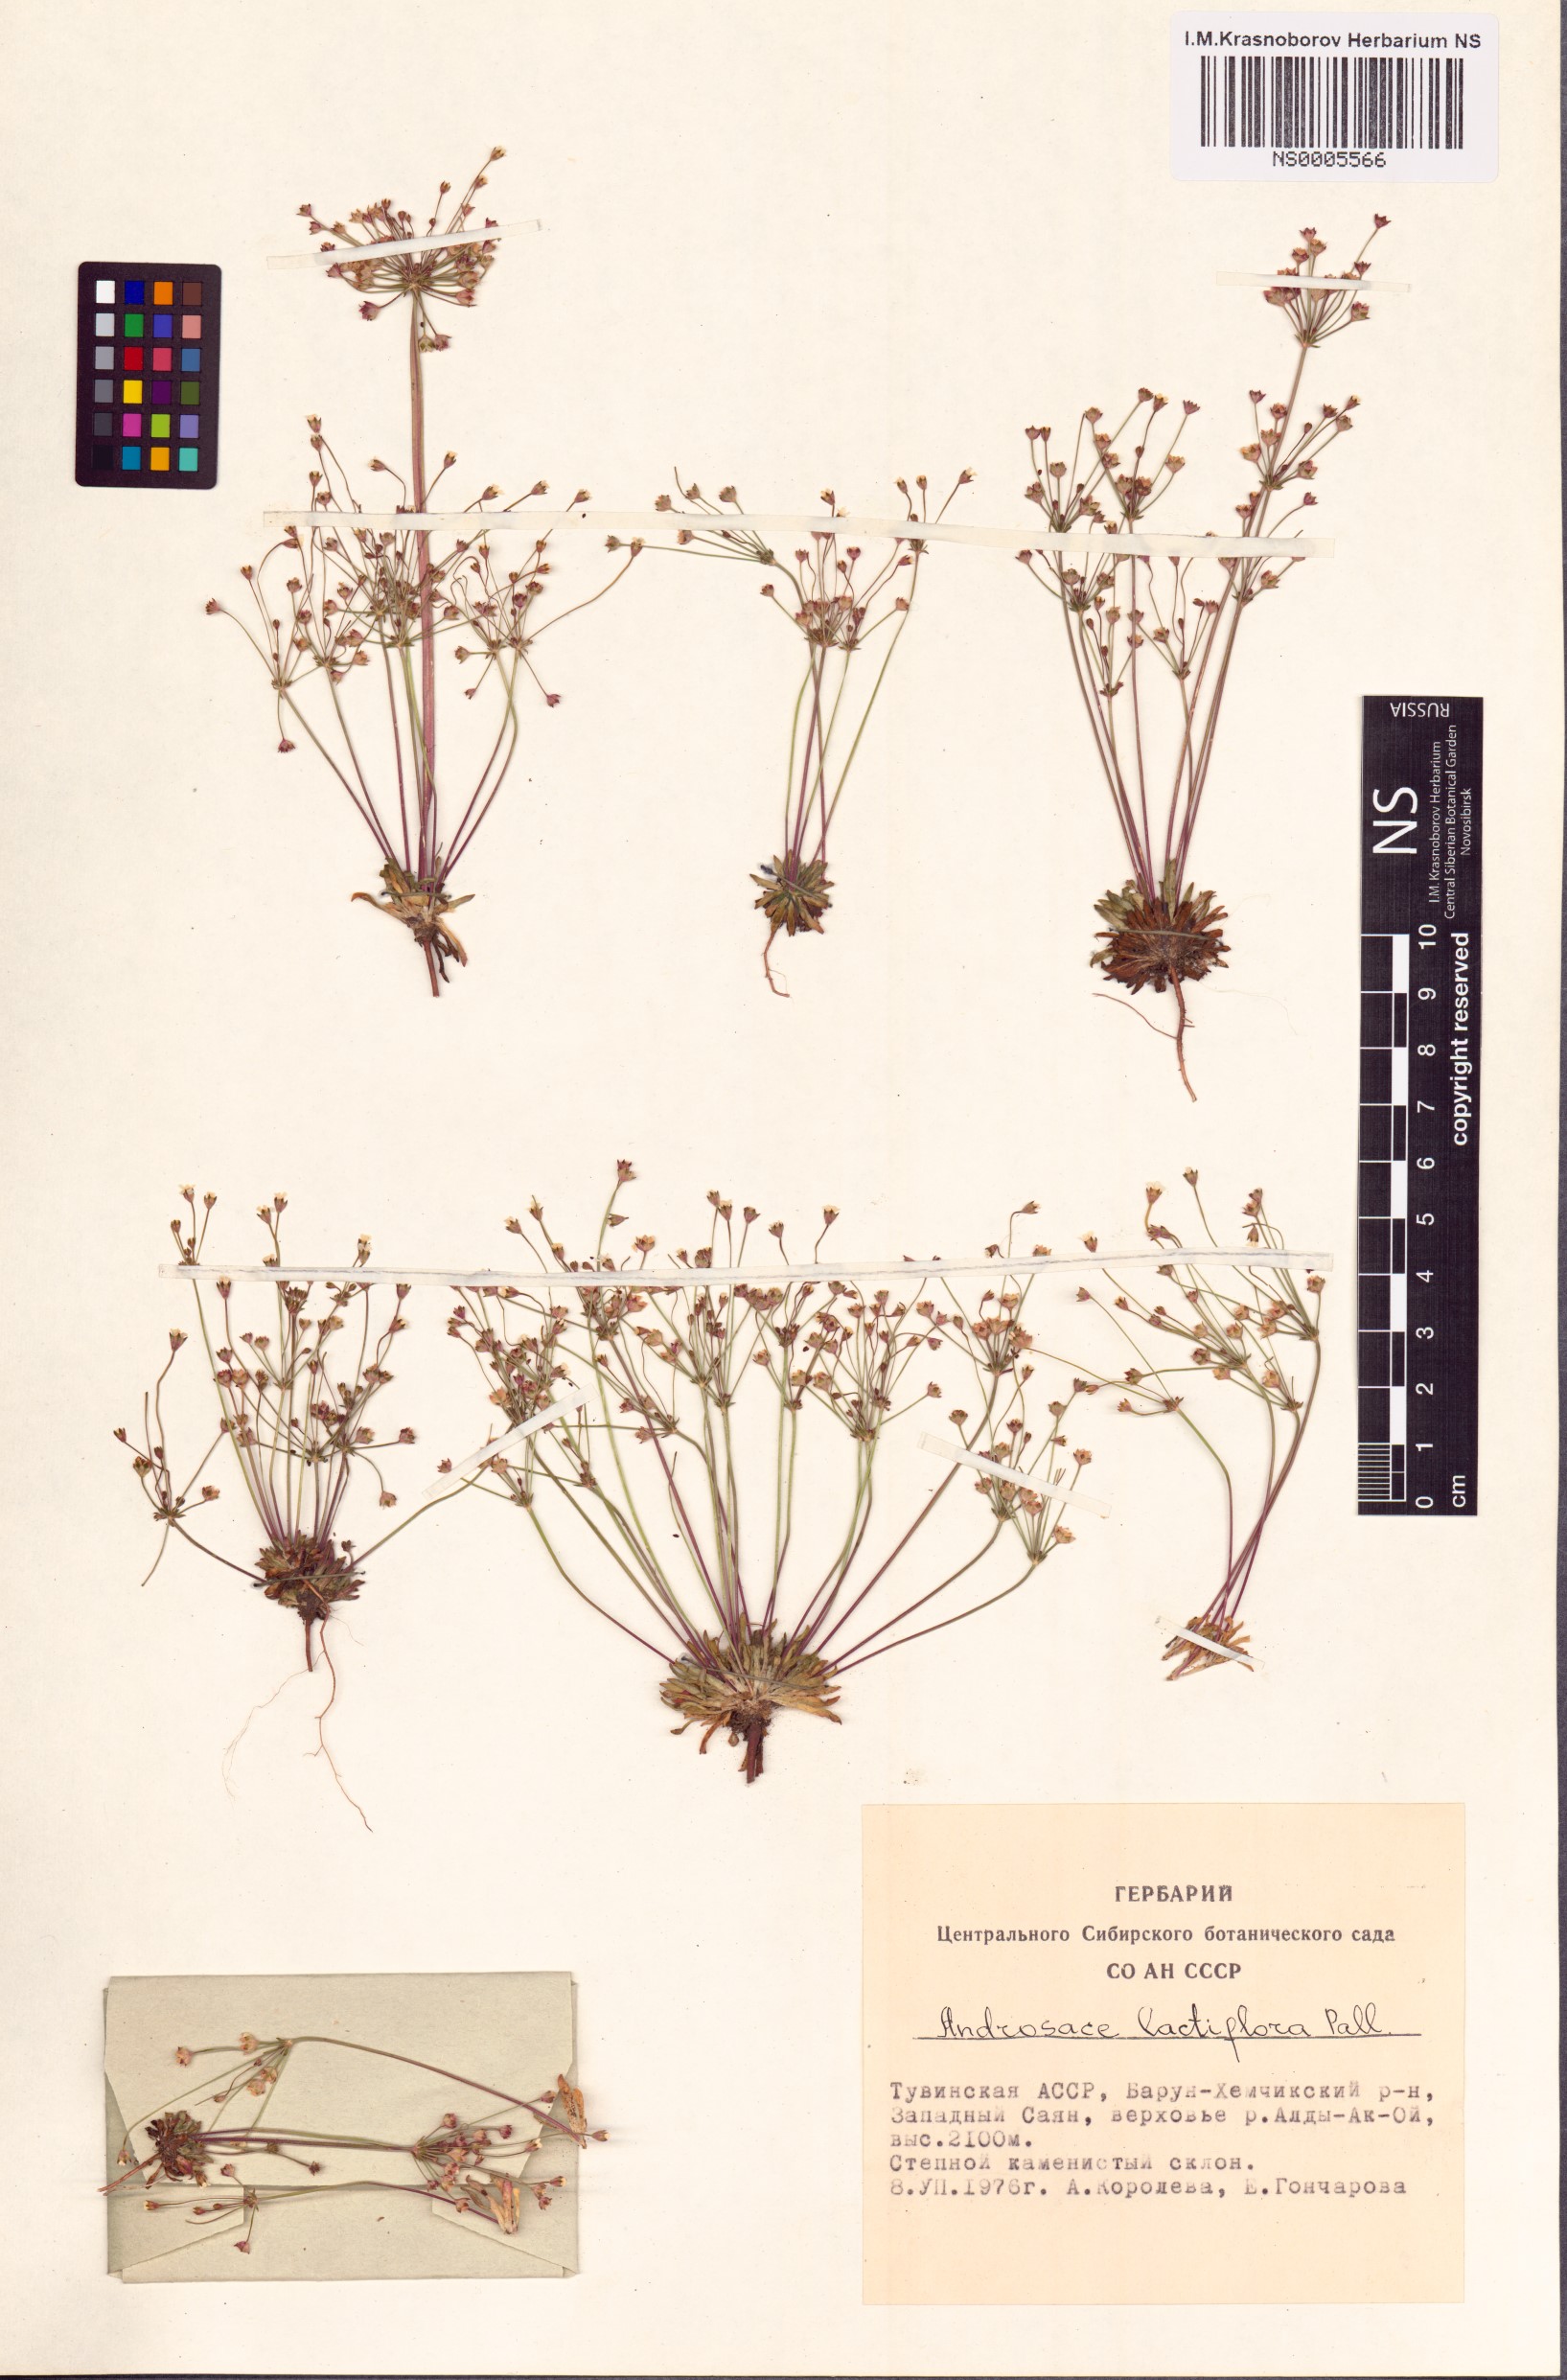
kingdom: Plantae
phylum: Tracheophyta
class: Magnoliopsida
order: Ericales
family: Primulaceae
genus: Androsace
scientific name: Androsace lactiflora
